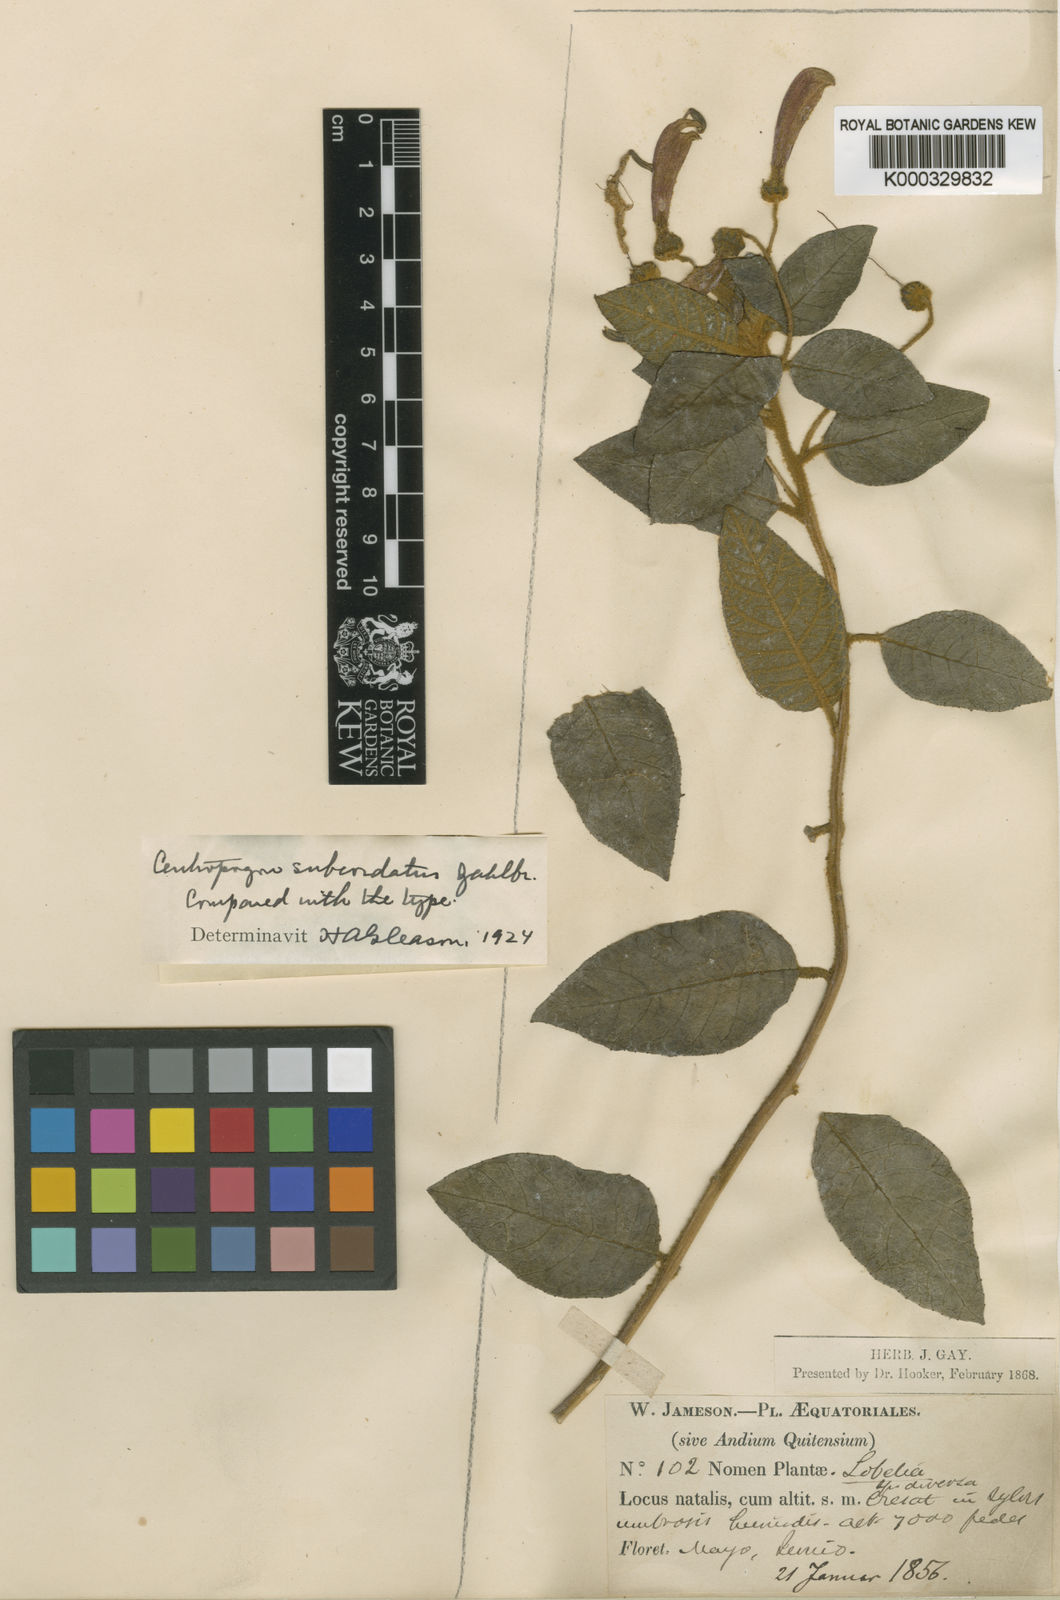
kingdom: Plantae
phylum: Tracheophyta
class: Magnoliopsida
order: Asterales
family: Campanulaceae
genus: Centropogon
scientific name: Centropogon subcordatus
